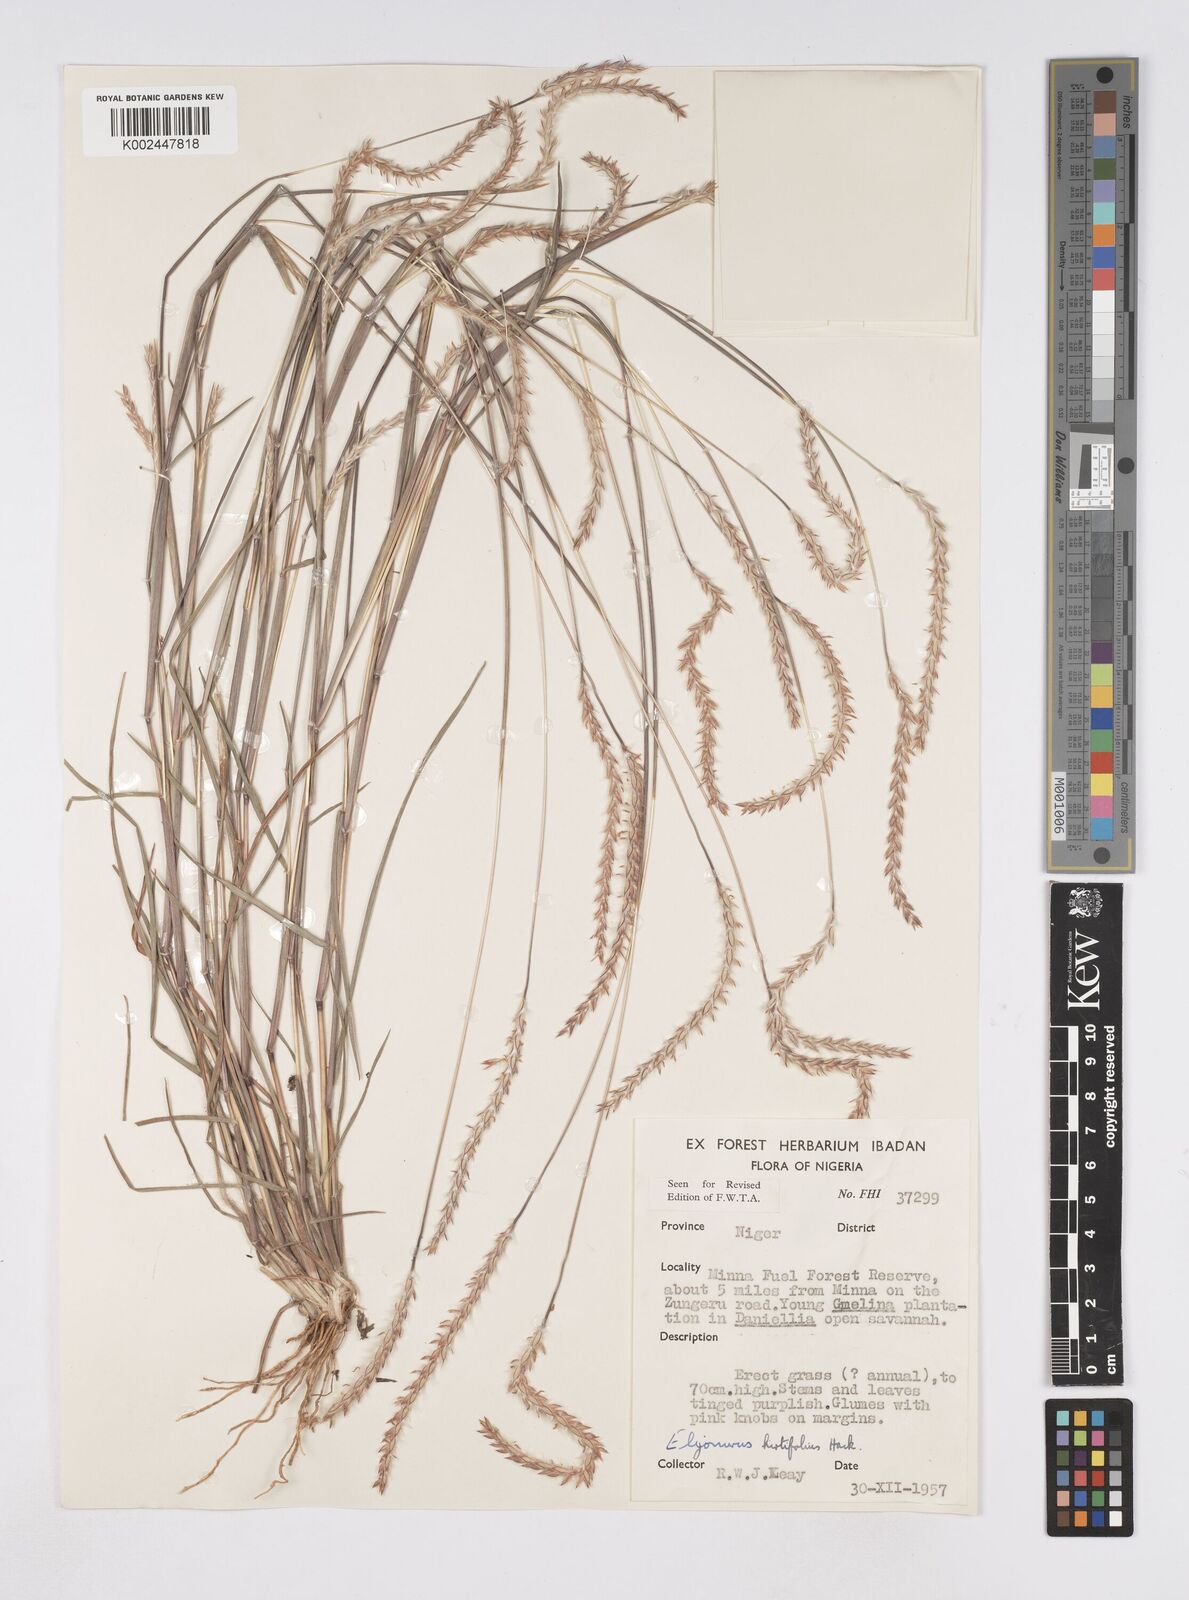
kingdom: Plantae
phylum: Tracheophyta
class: Liliopsida
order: Poales
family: Poaceae
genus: Elionurus
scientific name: Elionurus hirtifolius
